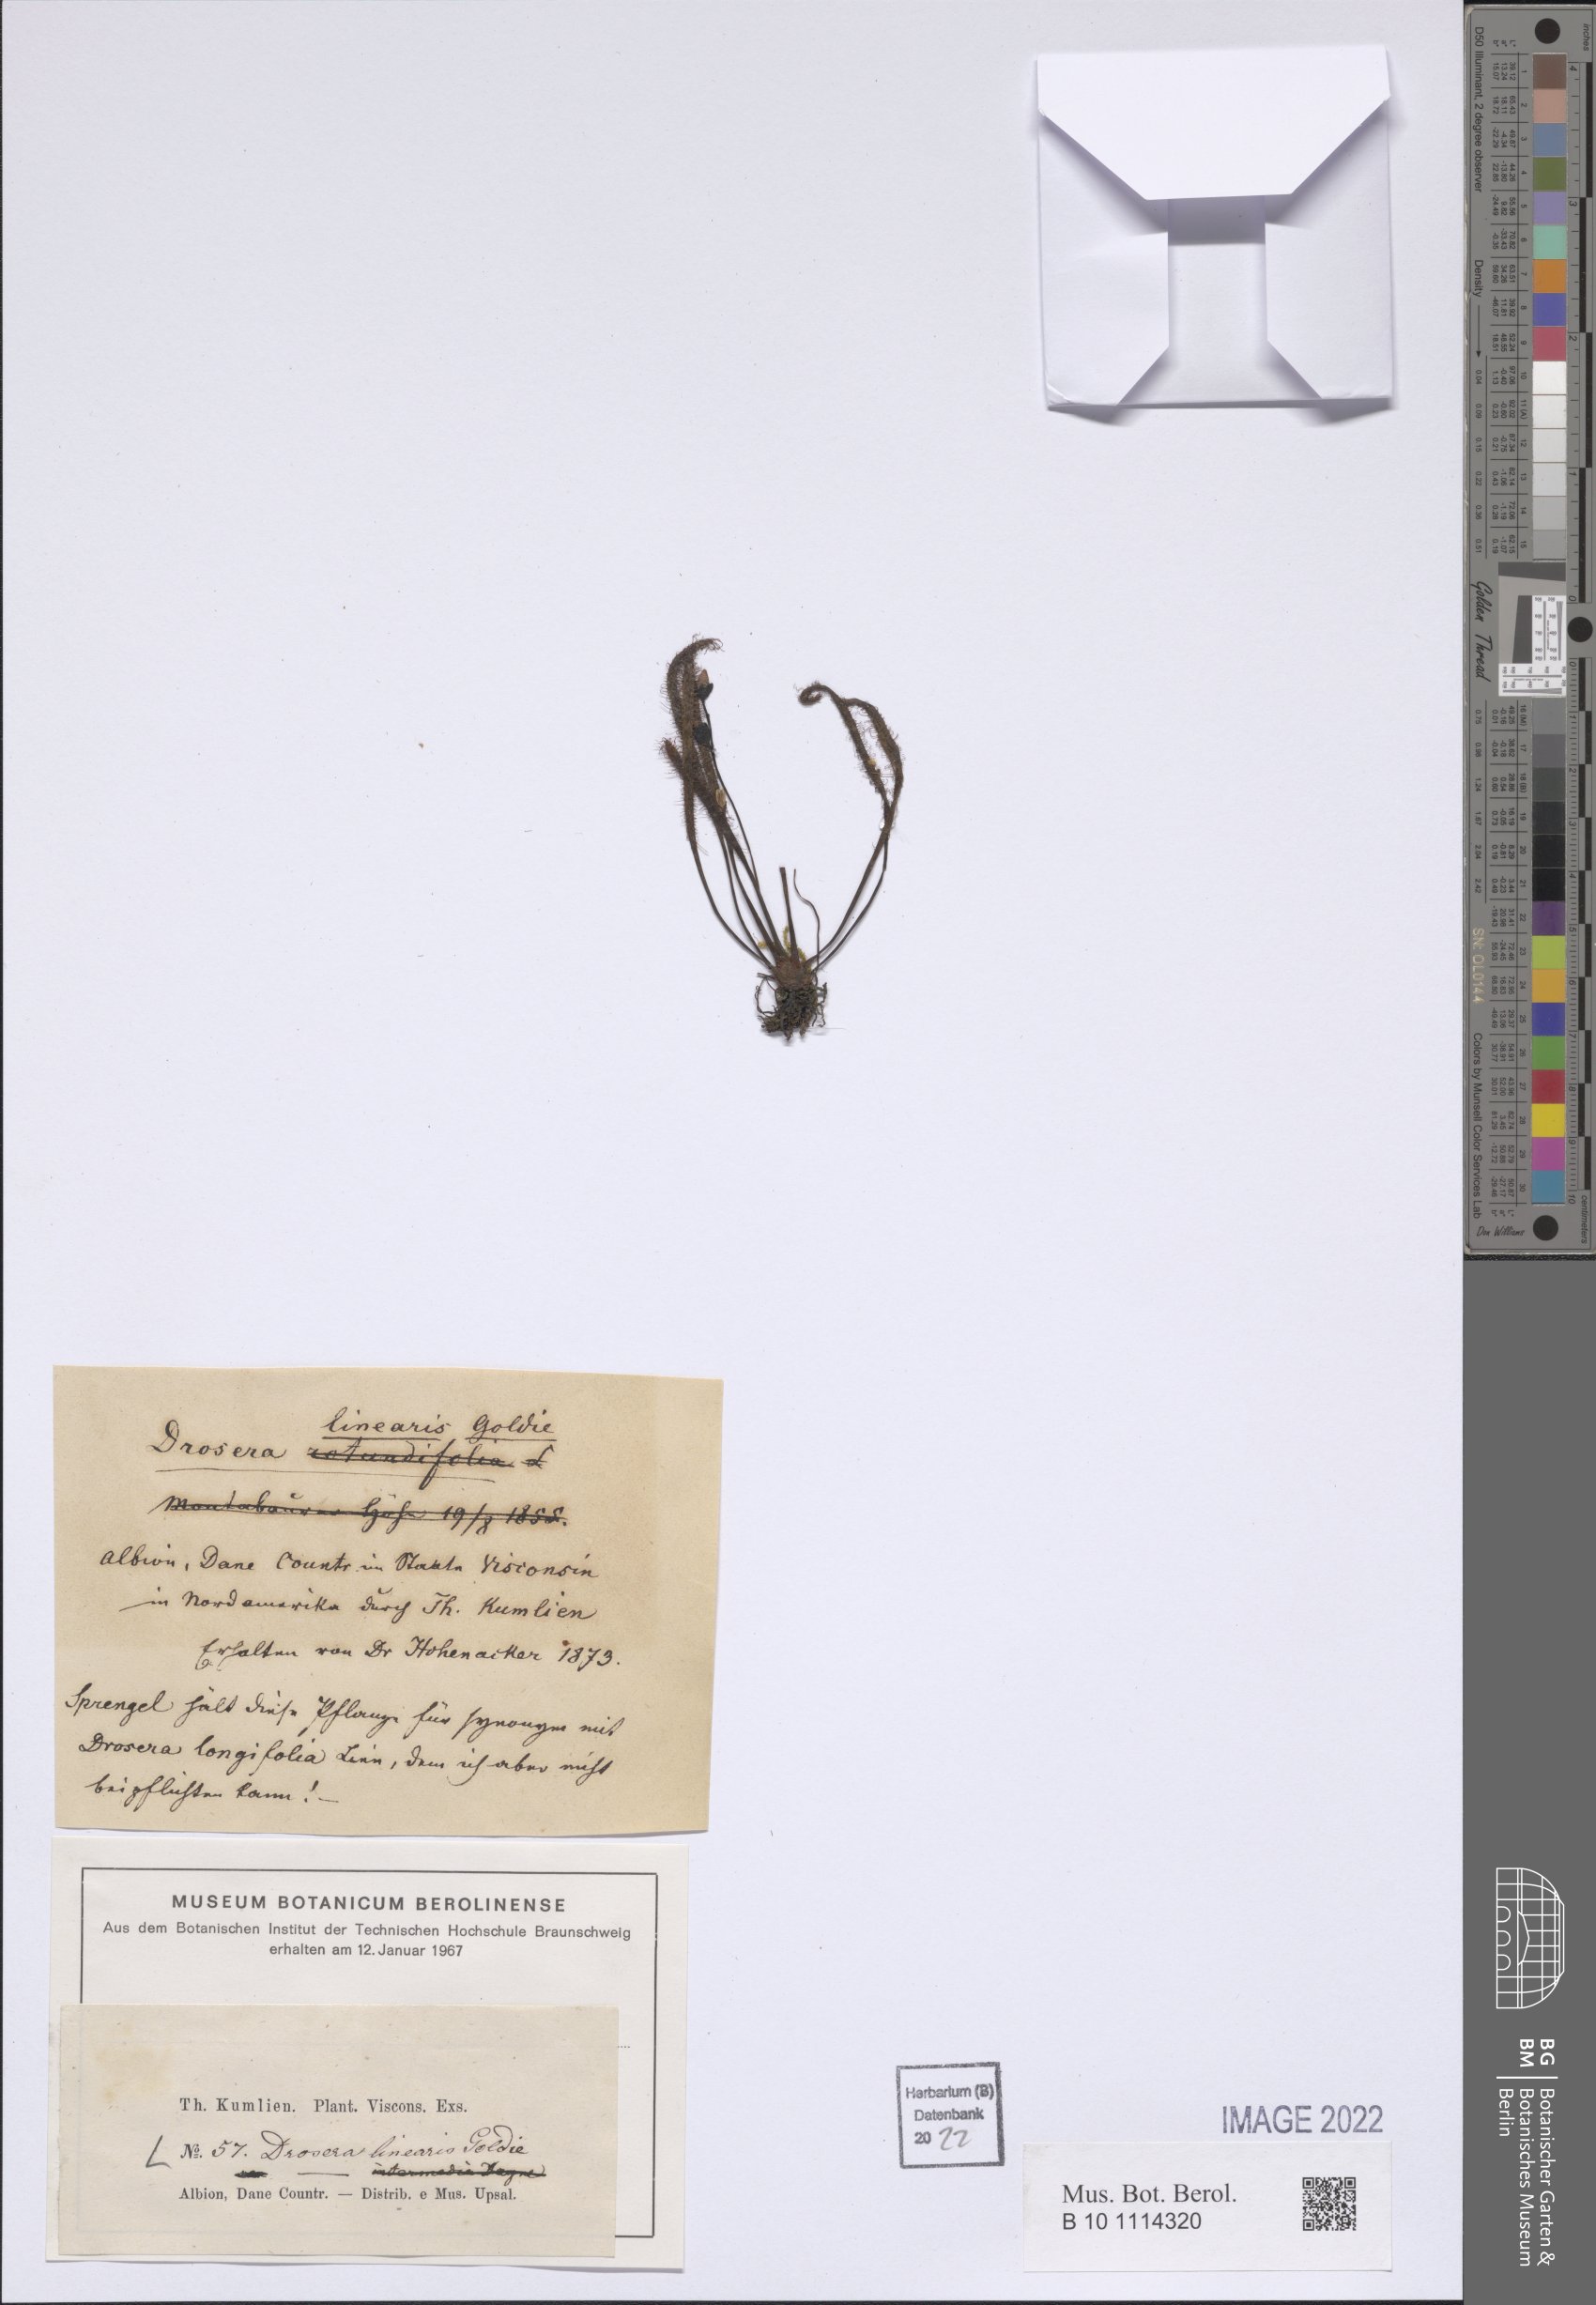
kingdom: Plantae
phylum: Tracheophyta
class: Magnoliopsida
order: Caryophyllales
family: Droseraceae
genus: Drosera
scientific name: Drosera linearis
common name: Linear-leaved sundew
